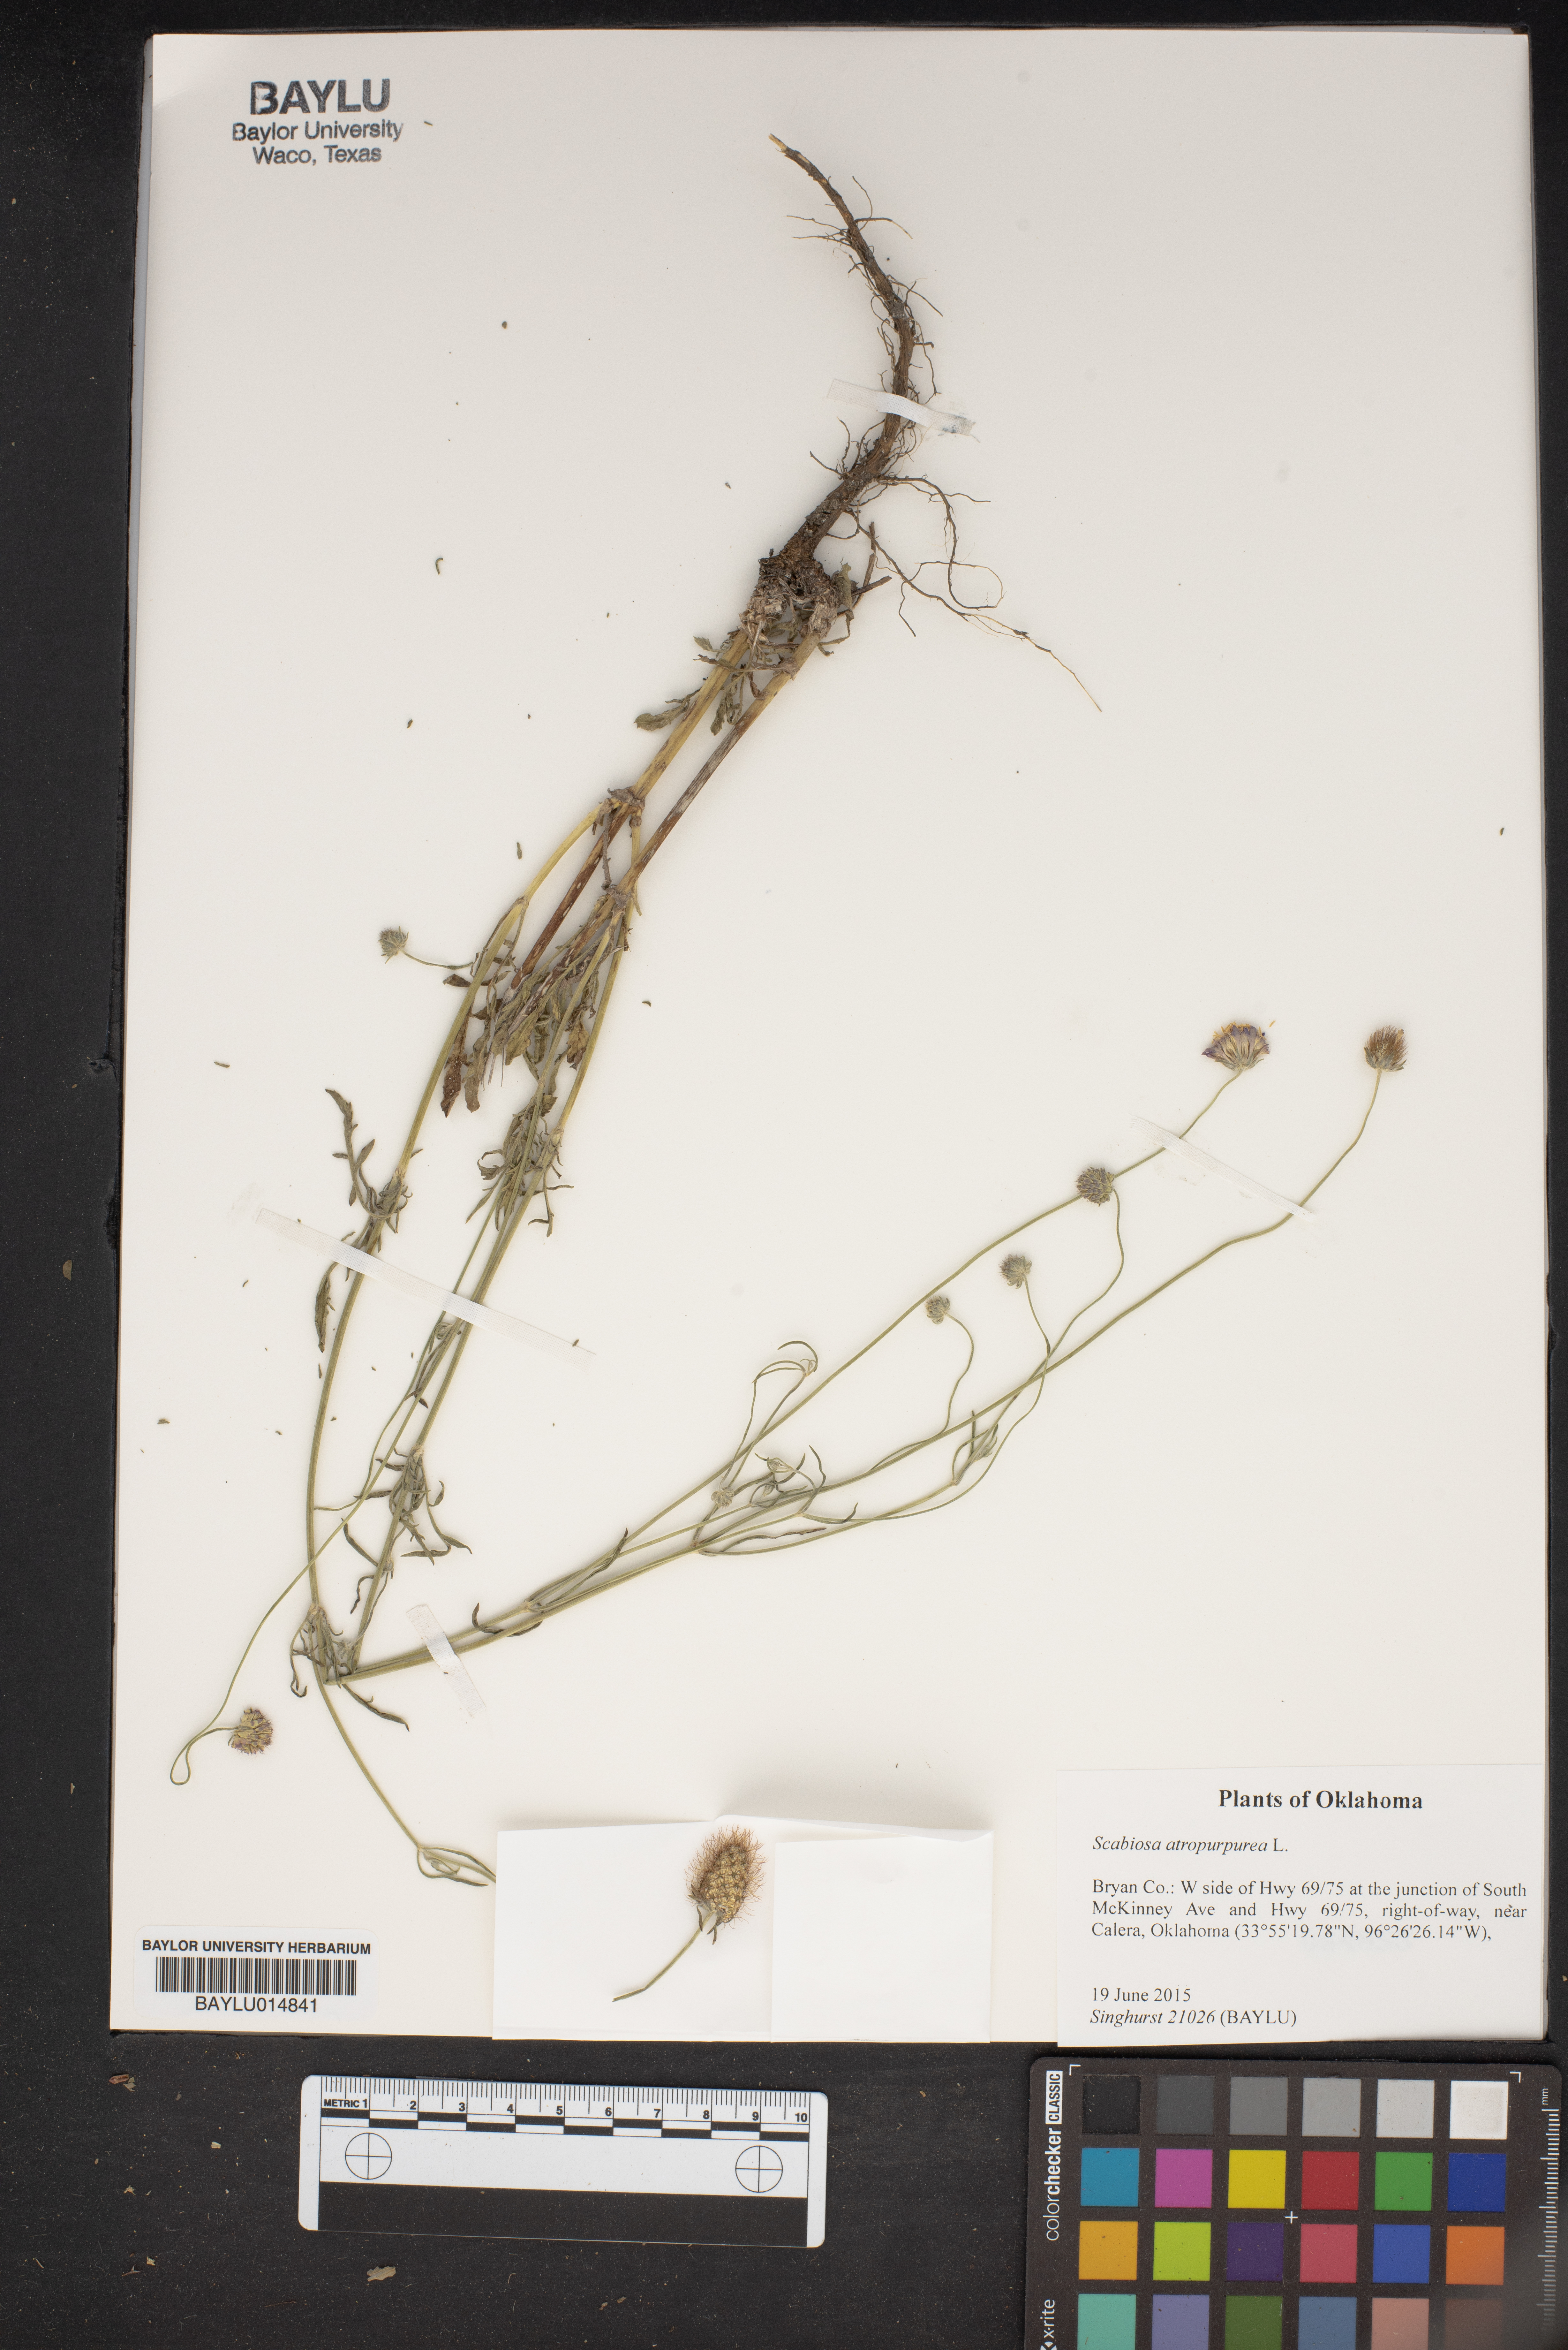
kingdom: Plantae
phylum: Tracheophyta
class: Magnoliopsida
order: Dipsacales
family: Caprifoliaceae
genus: Sixalix
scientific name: Sixalix atropurpurea
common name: Sweet scabious
